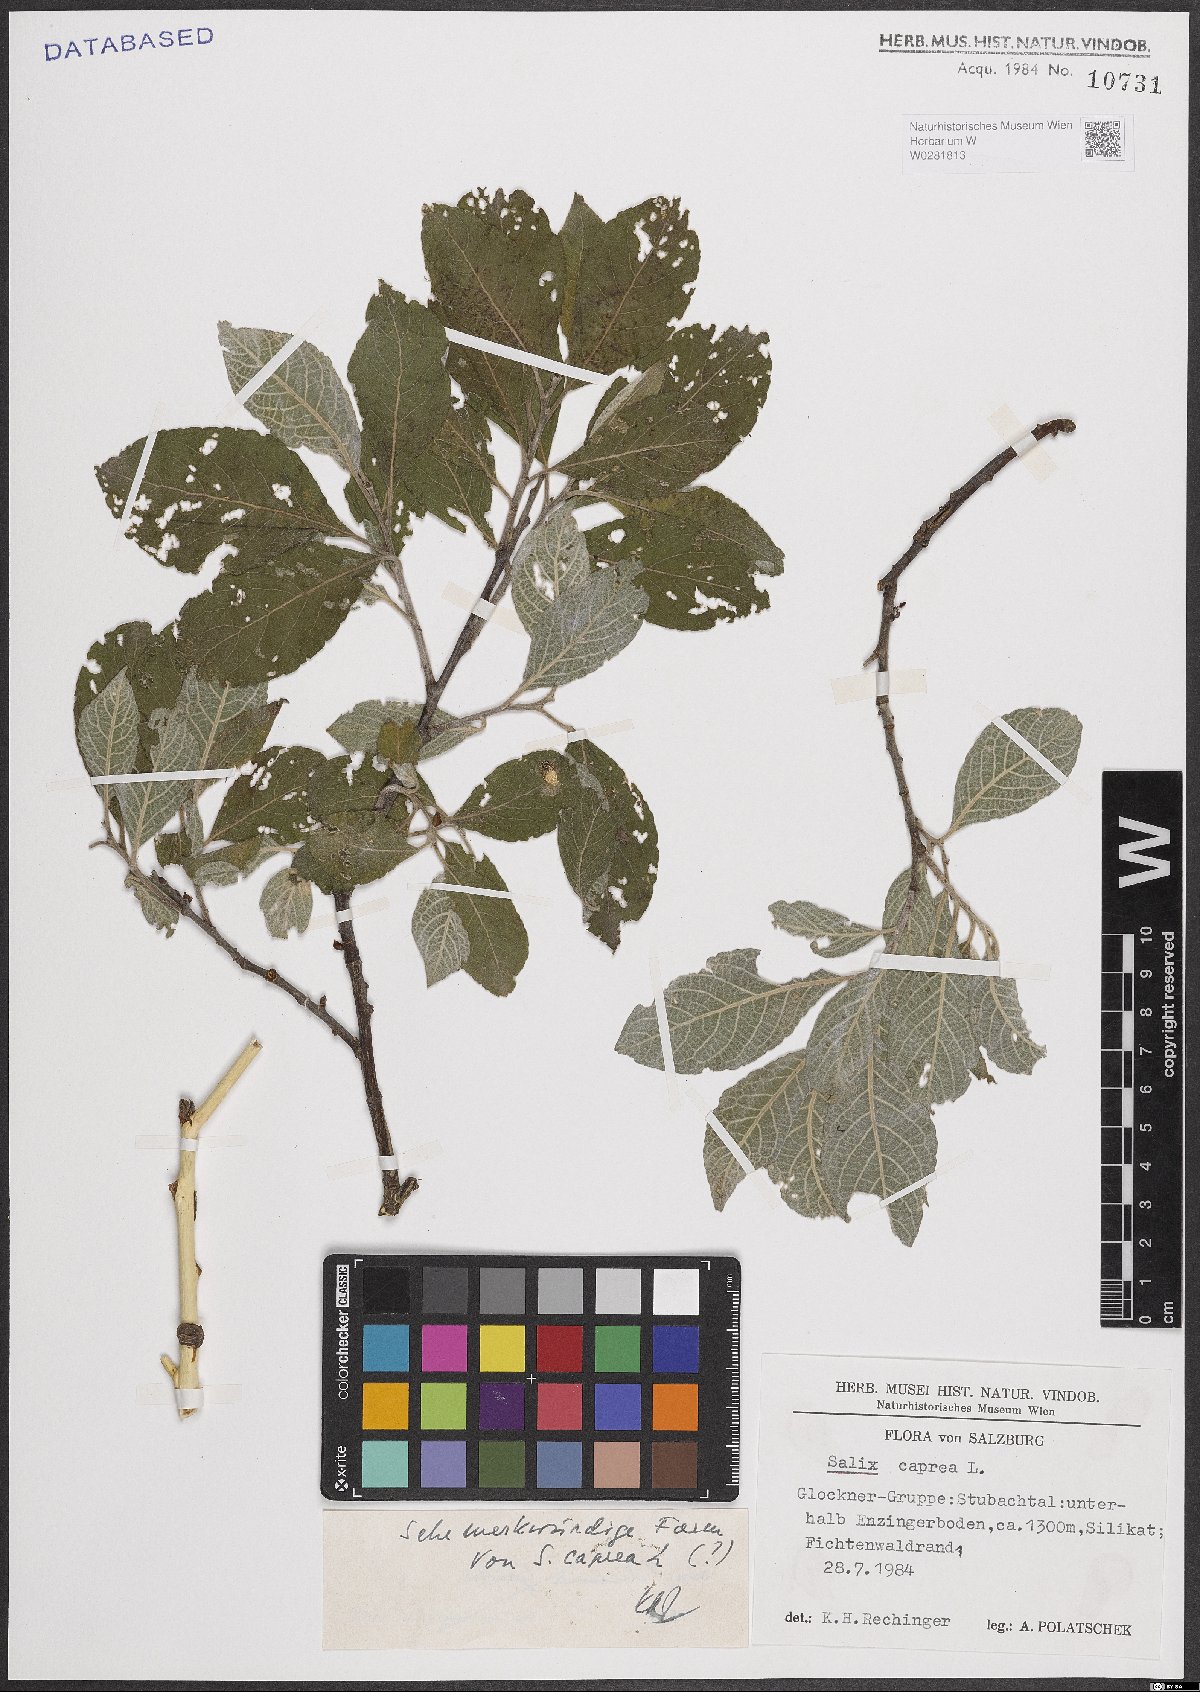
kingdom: Plantae
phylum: Tracheophyta
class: Magnoliopsida
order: Malpighiales
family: Salicaceae
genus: Salix
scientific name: Salix caprea
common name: Goat willow
